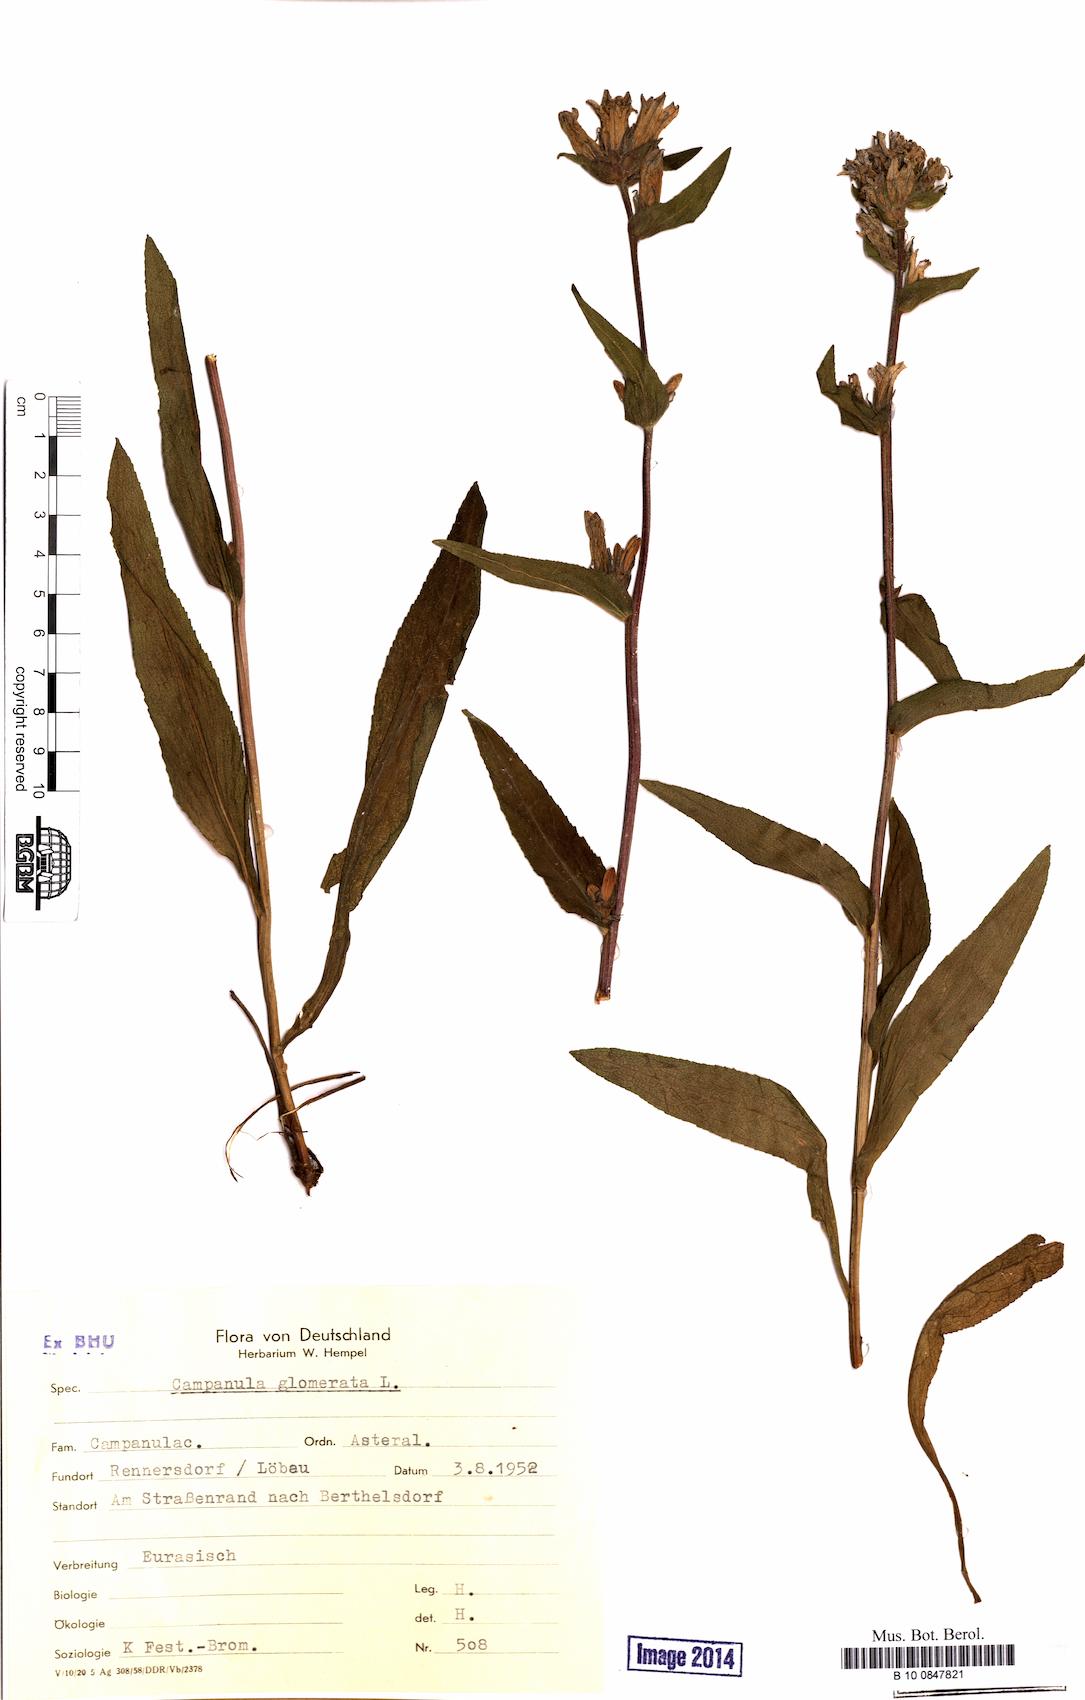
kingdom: Plantae
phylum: Tracheophyta
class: Magnoliopsida
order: Asterales
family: Campanulaceae
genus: Campanula
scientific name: Campanula glomerata
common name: Clustered bellflower
